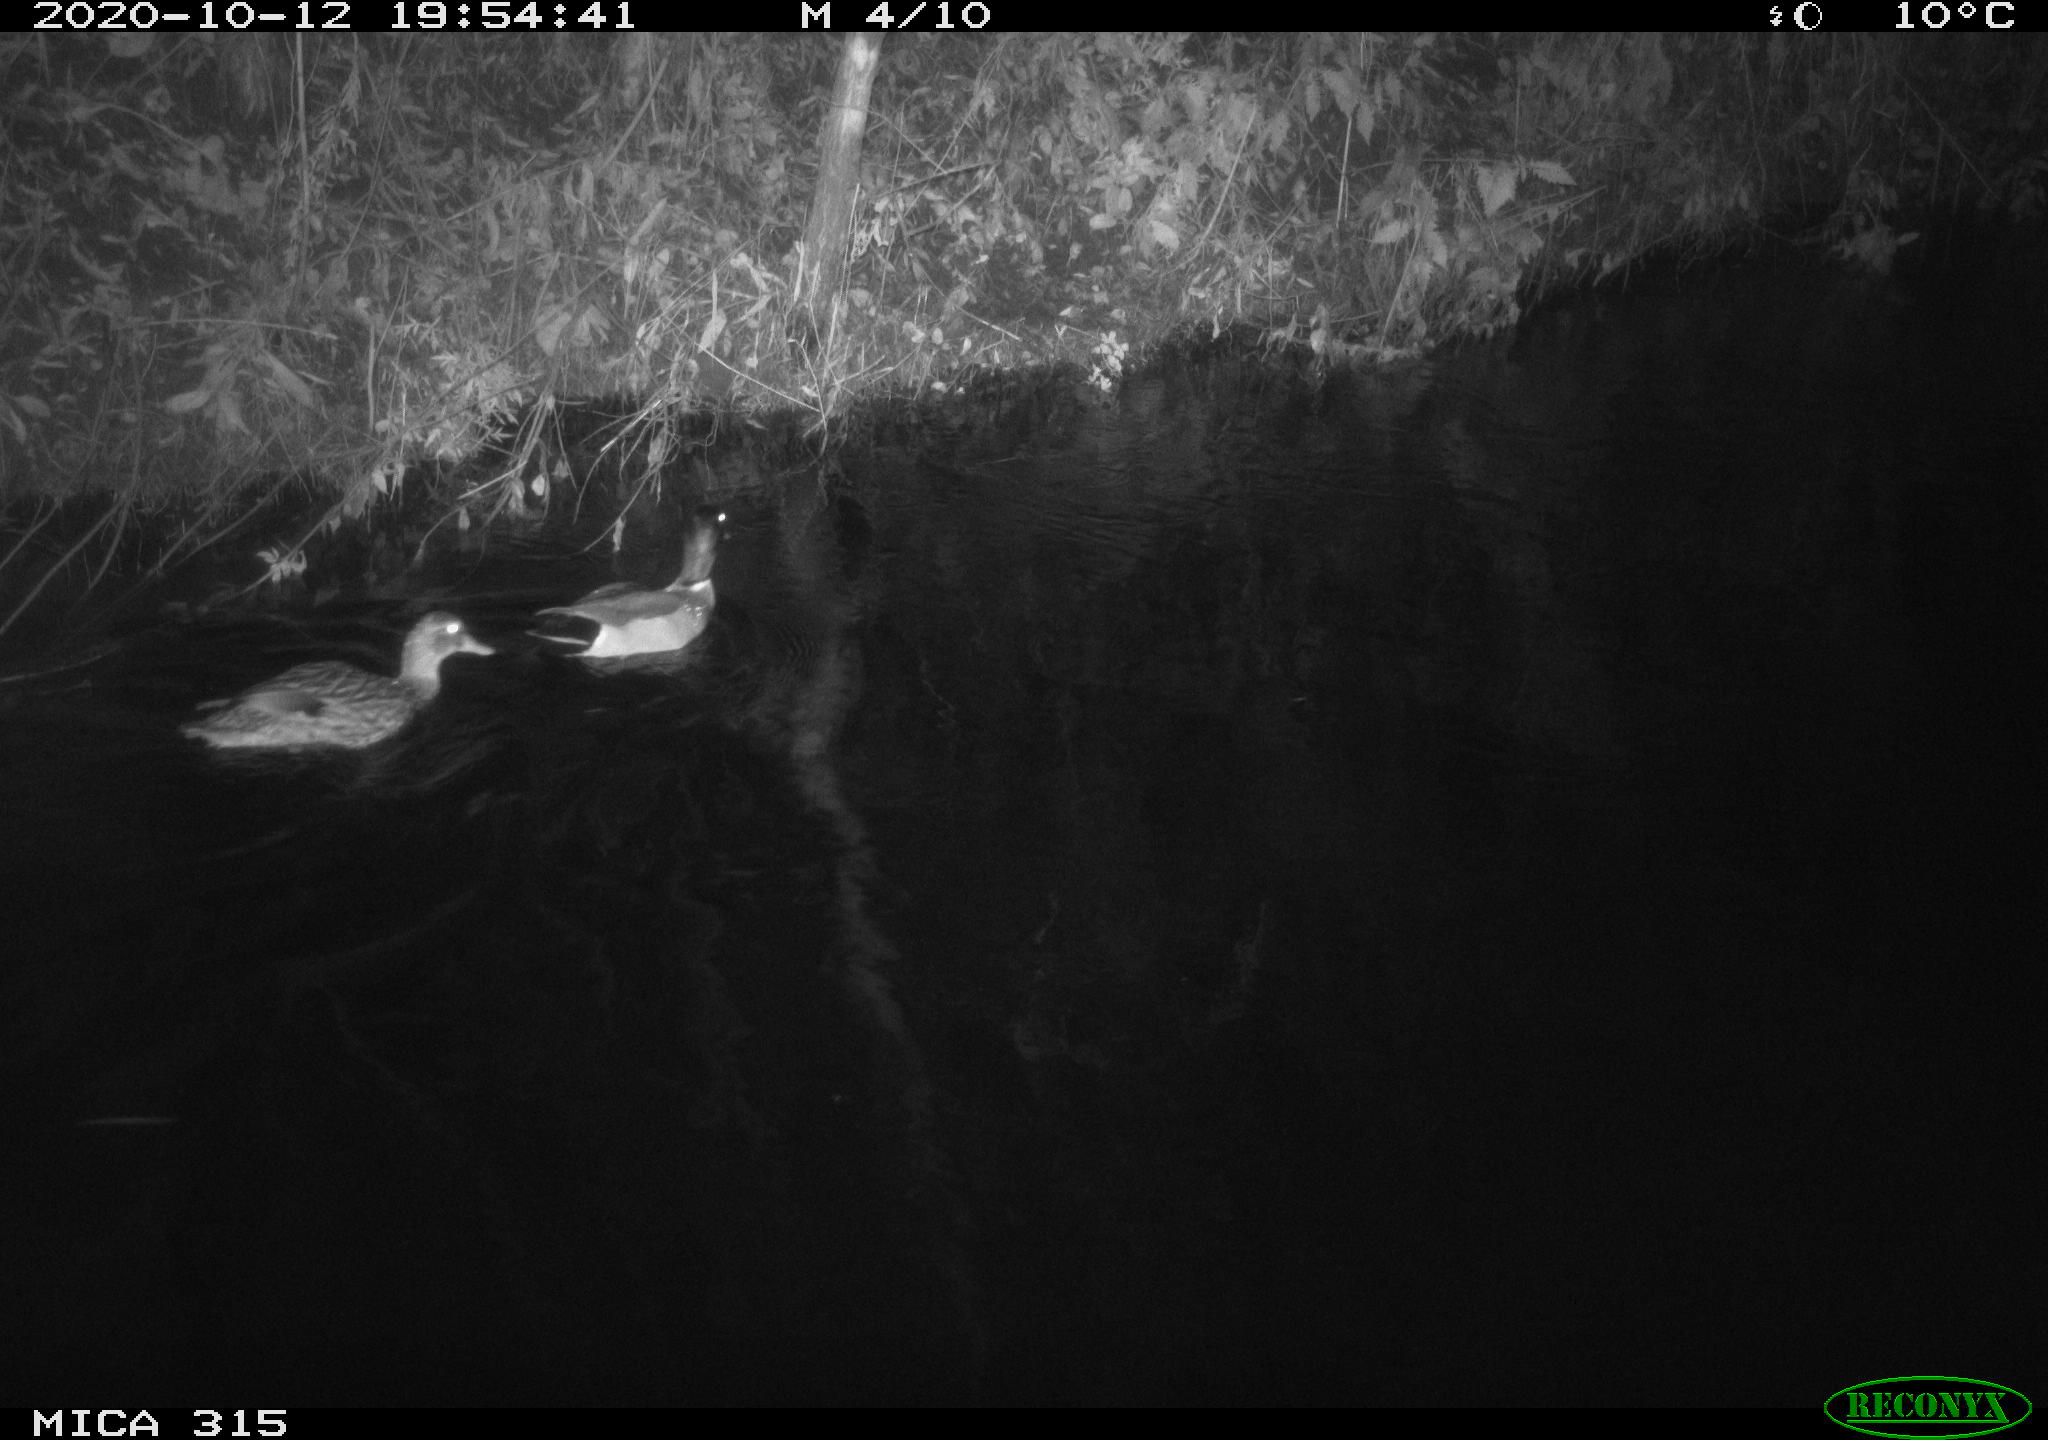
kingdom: Animalia
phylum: Chordata
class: Aves
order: Anseriformes
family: Anatidae
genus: Anas
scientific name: Anas platyrhynchos
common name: Mallard
